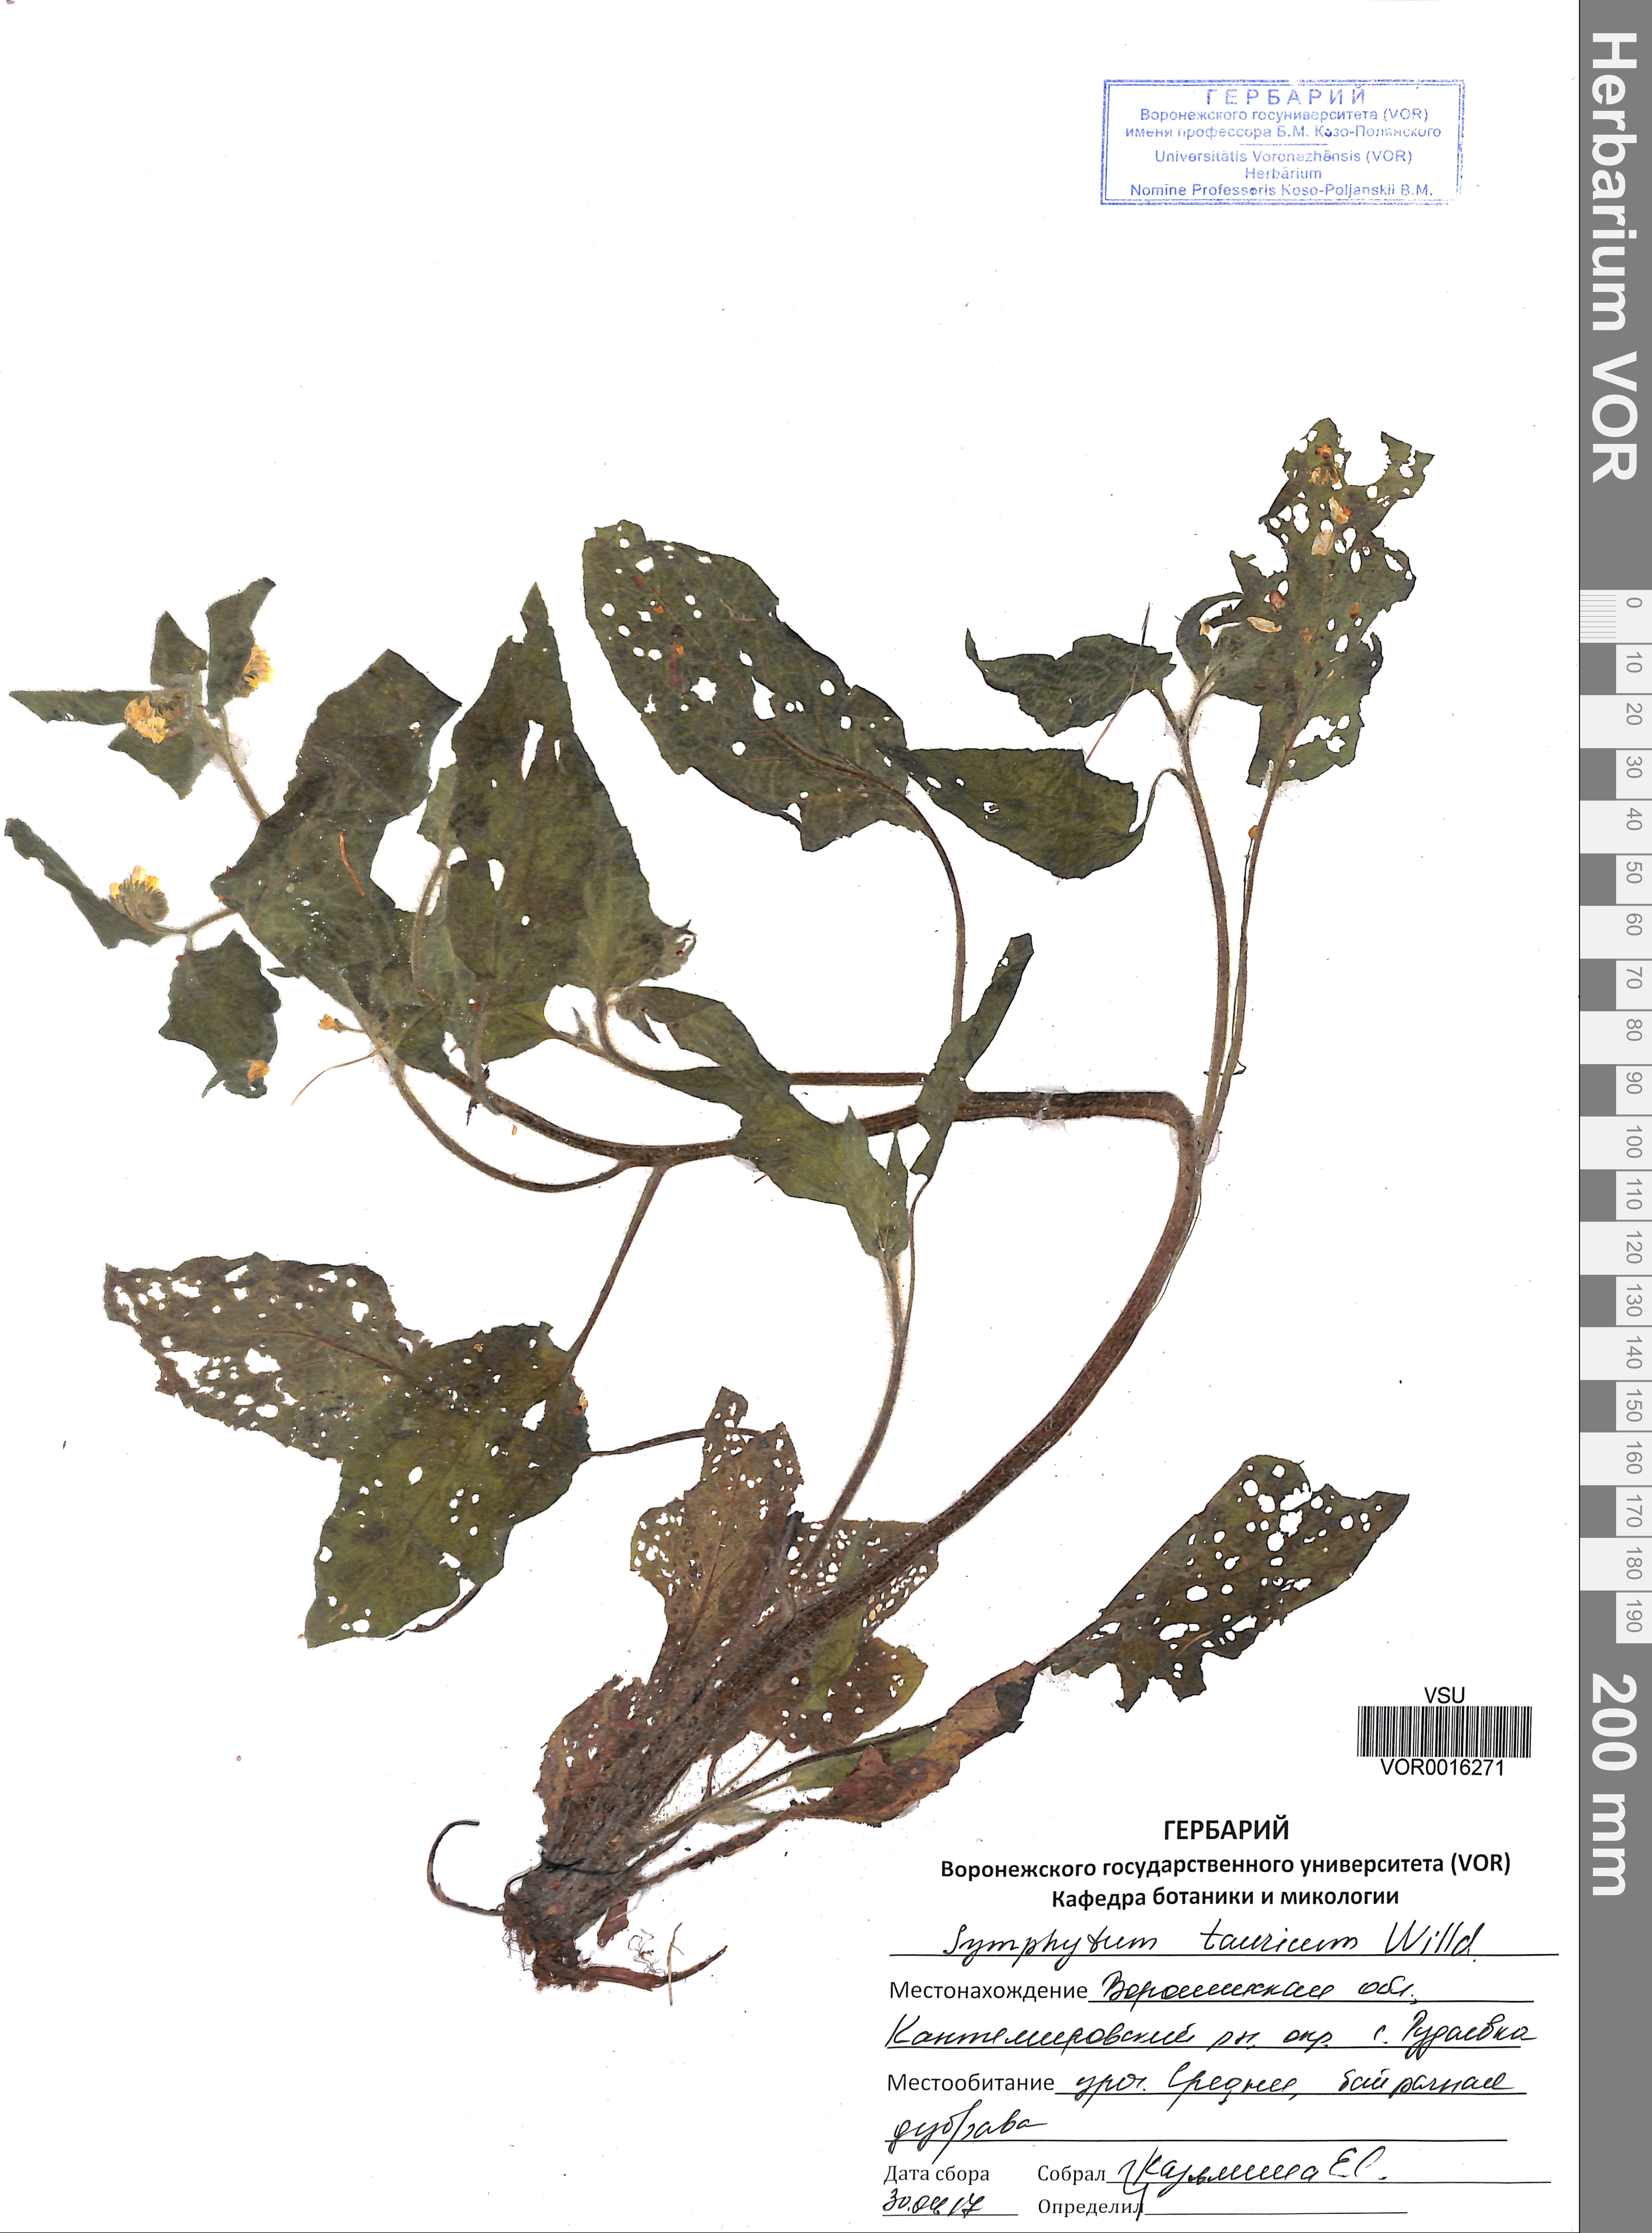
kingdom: Plantae
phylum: Tracheophyta
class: Magnoliopsida
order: Boraginales
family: Boraginaceae
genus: Symphytum
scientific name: Symphytum tauricum
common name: Crimean comfrey
